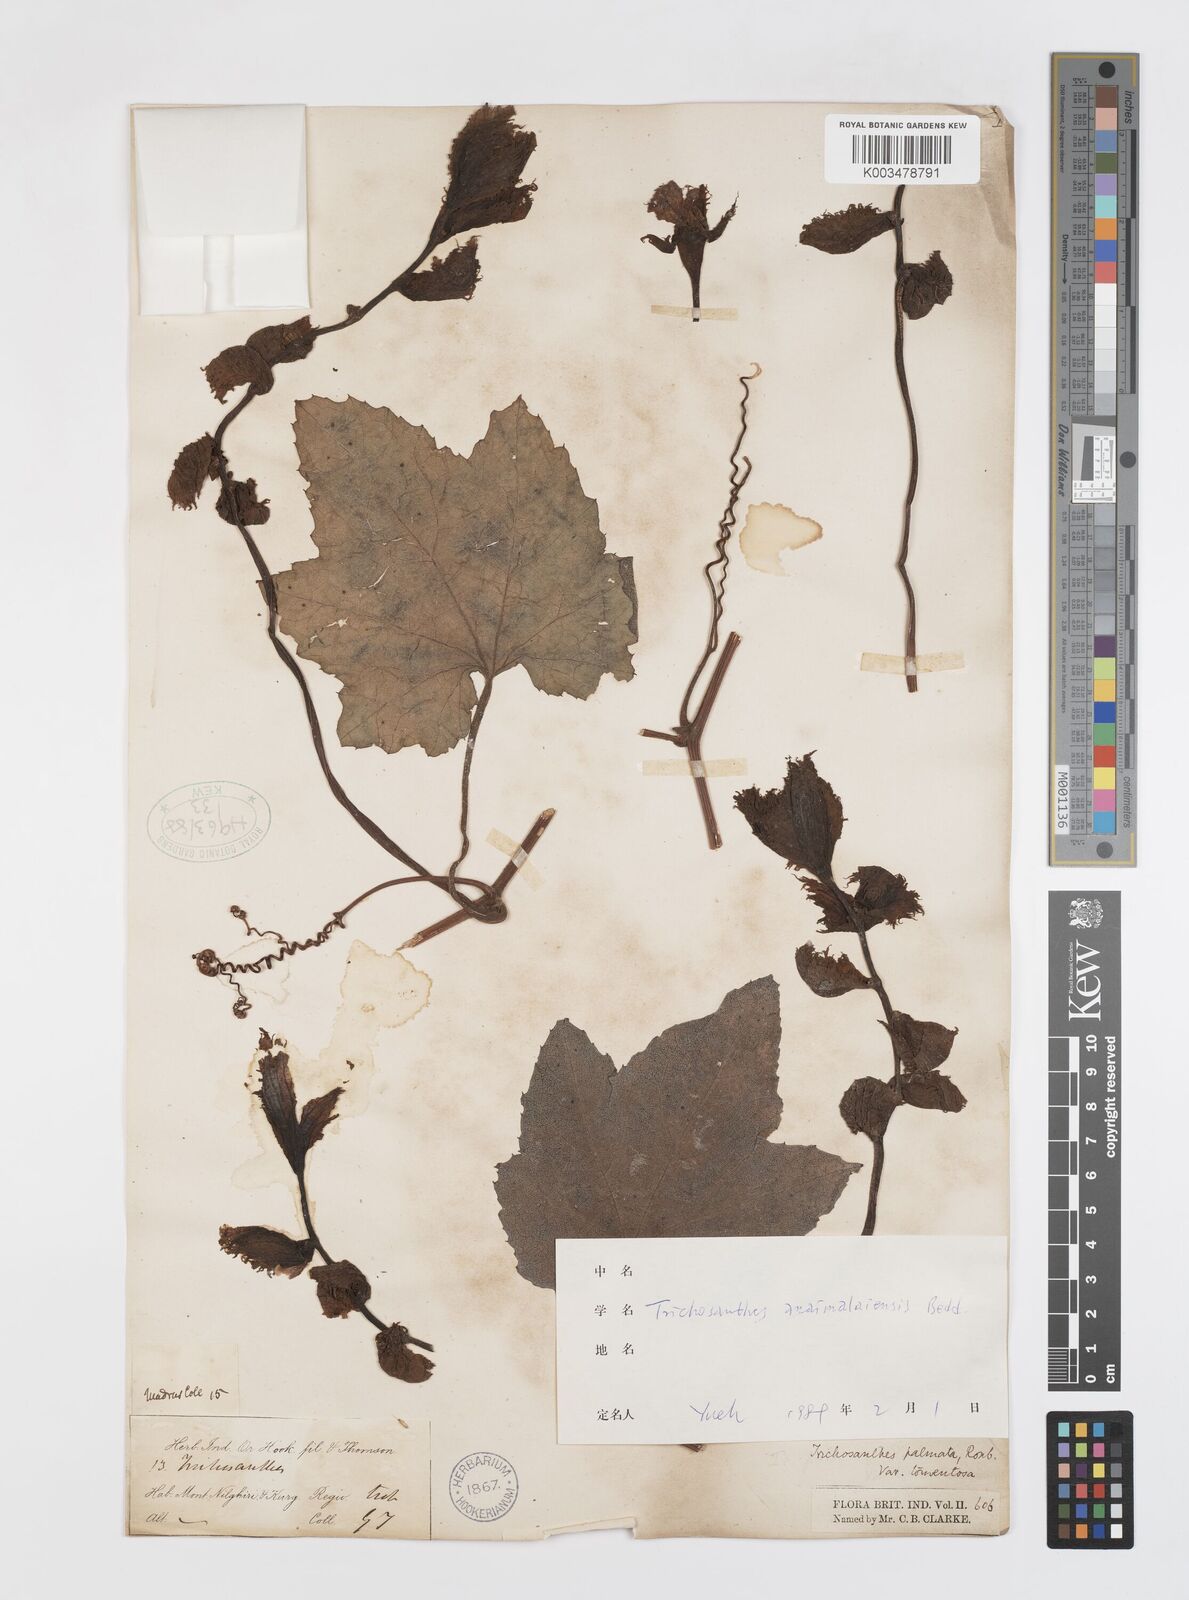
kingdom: Plantae
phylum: Tracheophyta
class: Magnoliopsida
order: Cucurbitales
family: Cucurbitaceae
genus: Trichosanthes
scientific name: Trichosanthes anaimalaiensis
